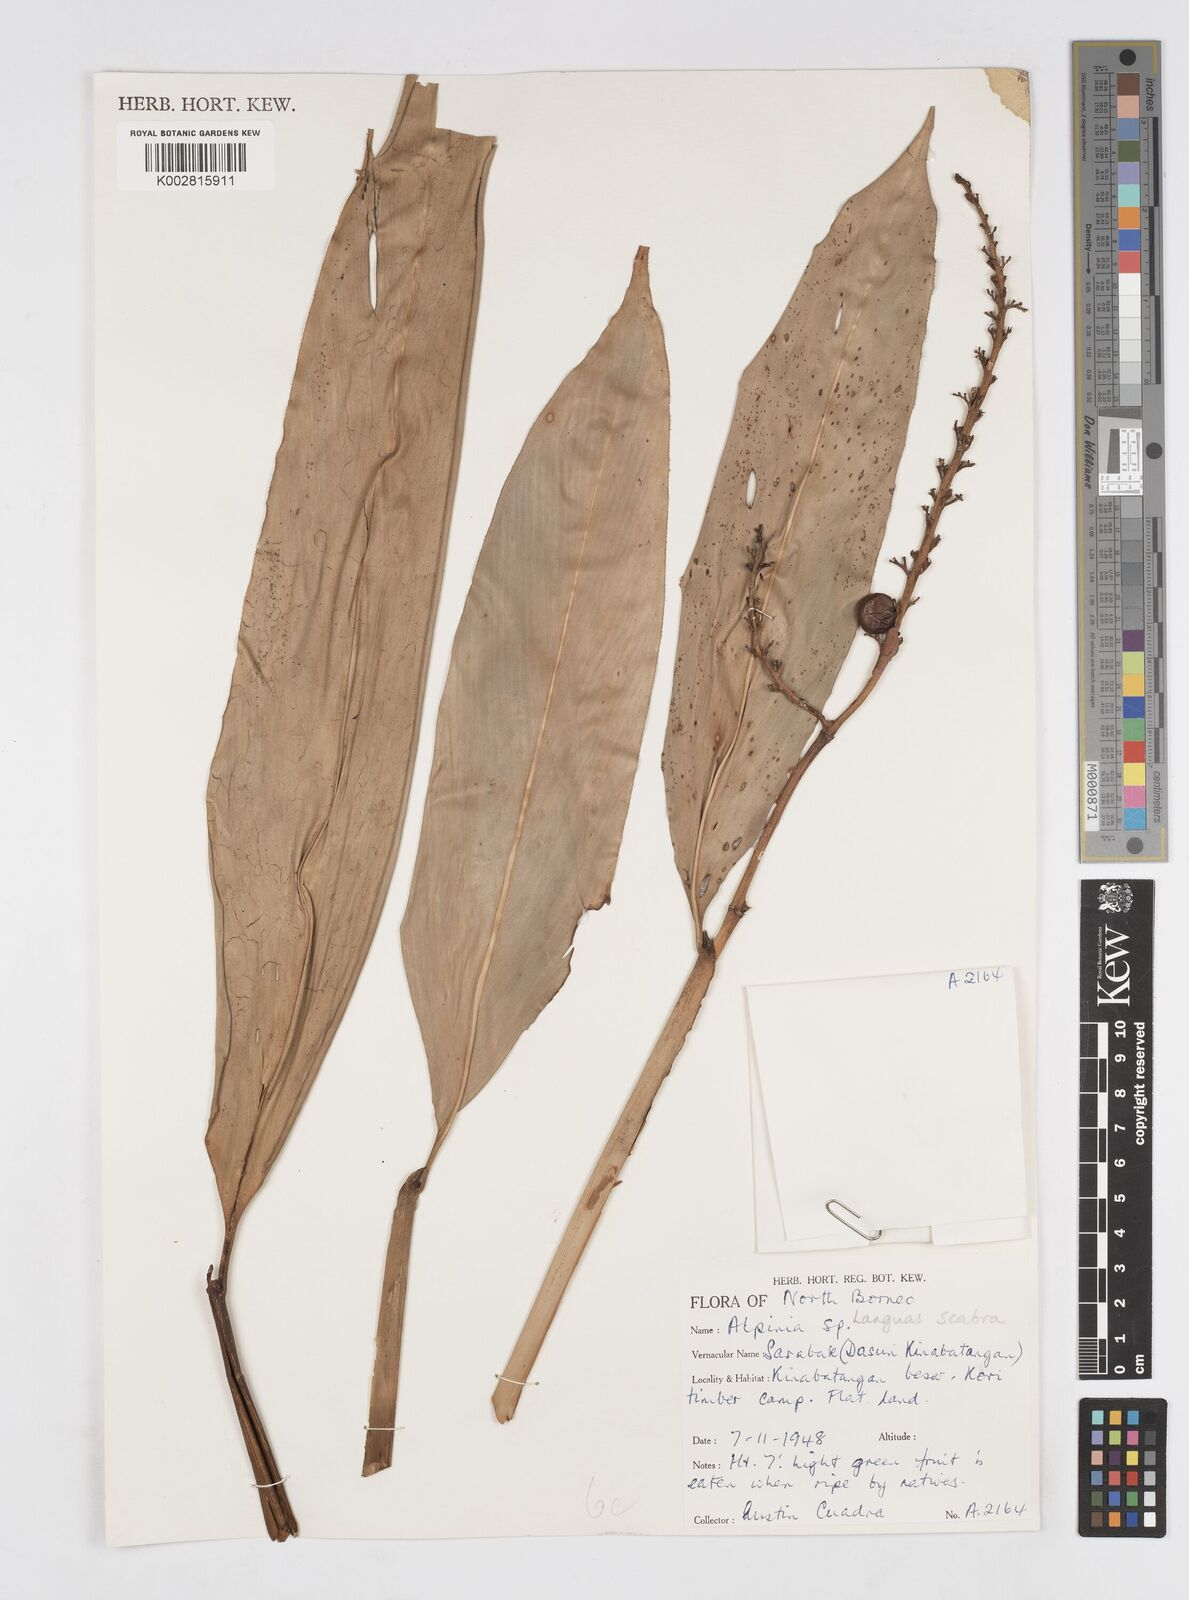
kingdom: Plantae
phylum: Tracheophyta
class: Liliopsida
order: Zingiberales
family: Zingiberaceae
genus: Alpinia
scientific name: Alpinia aquatica
